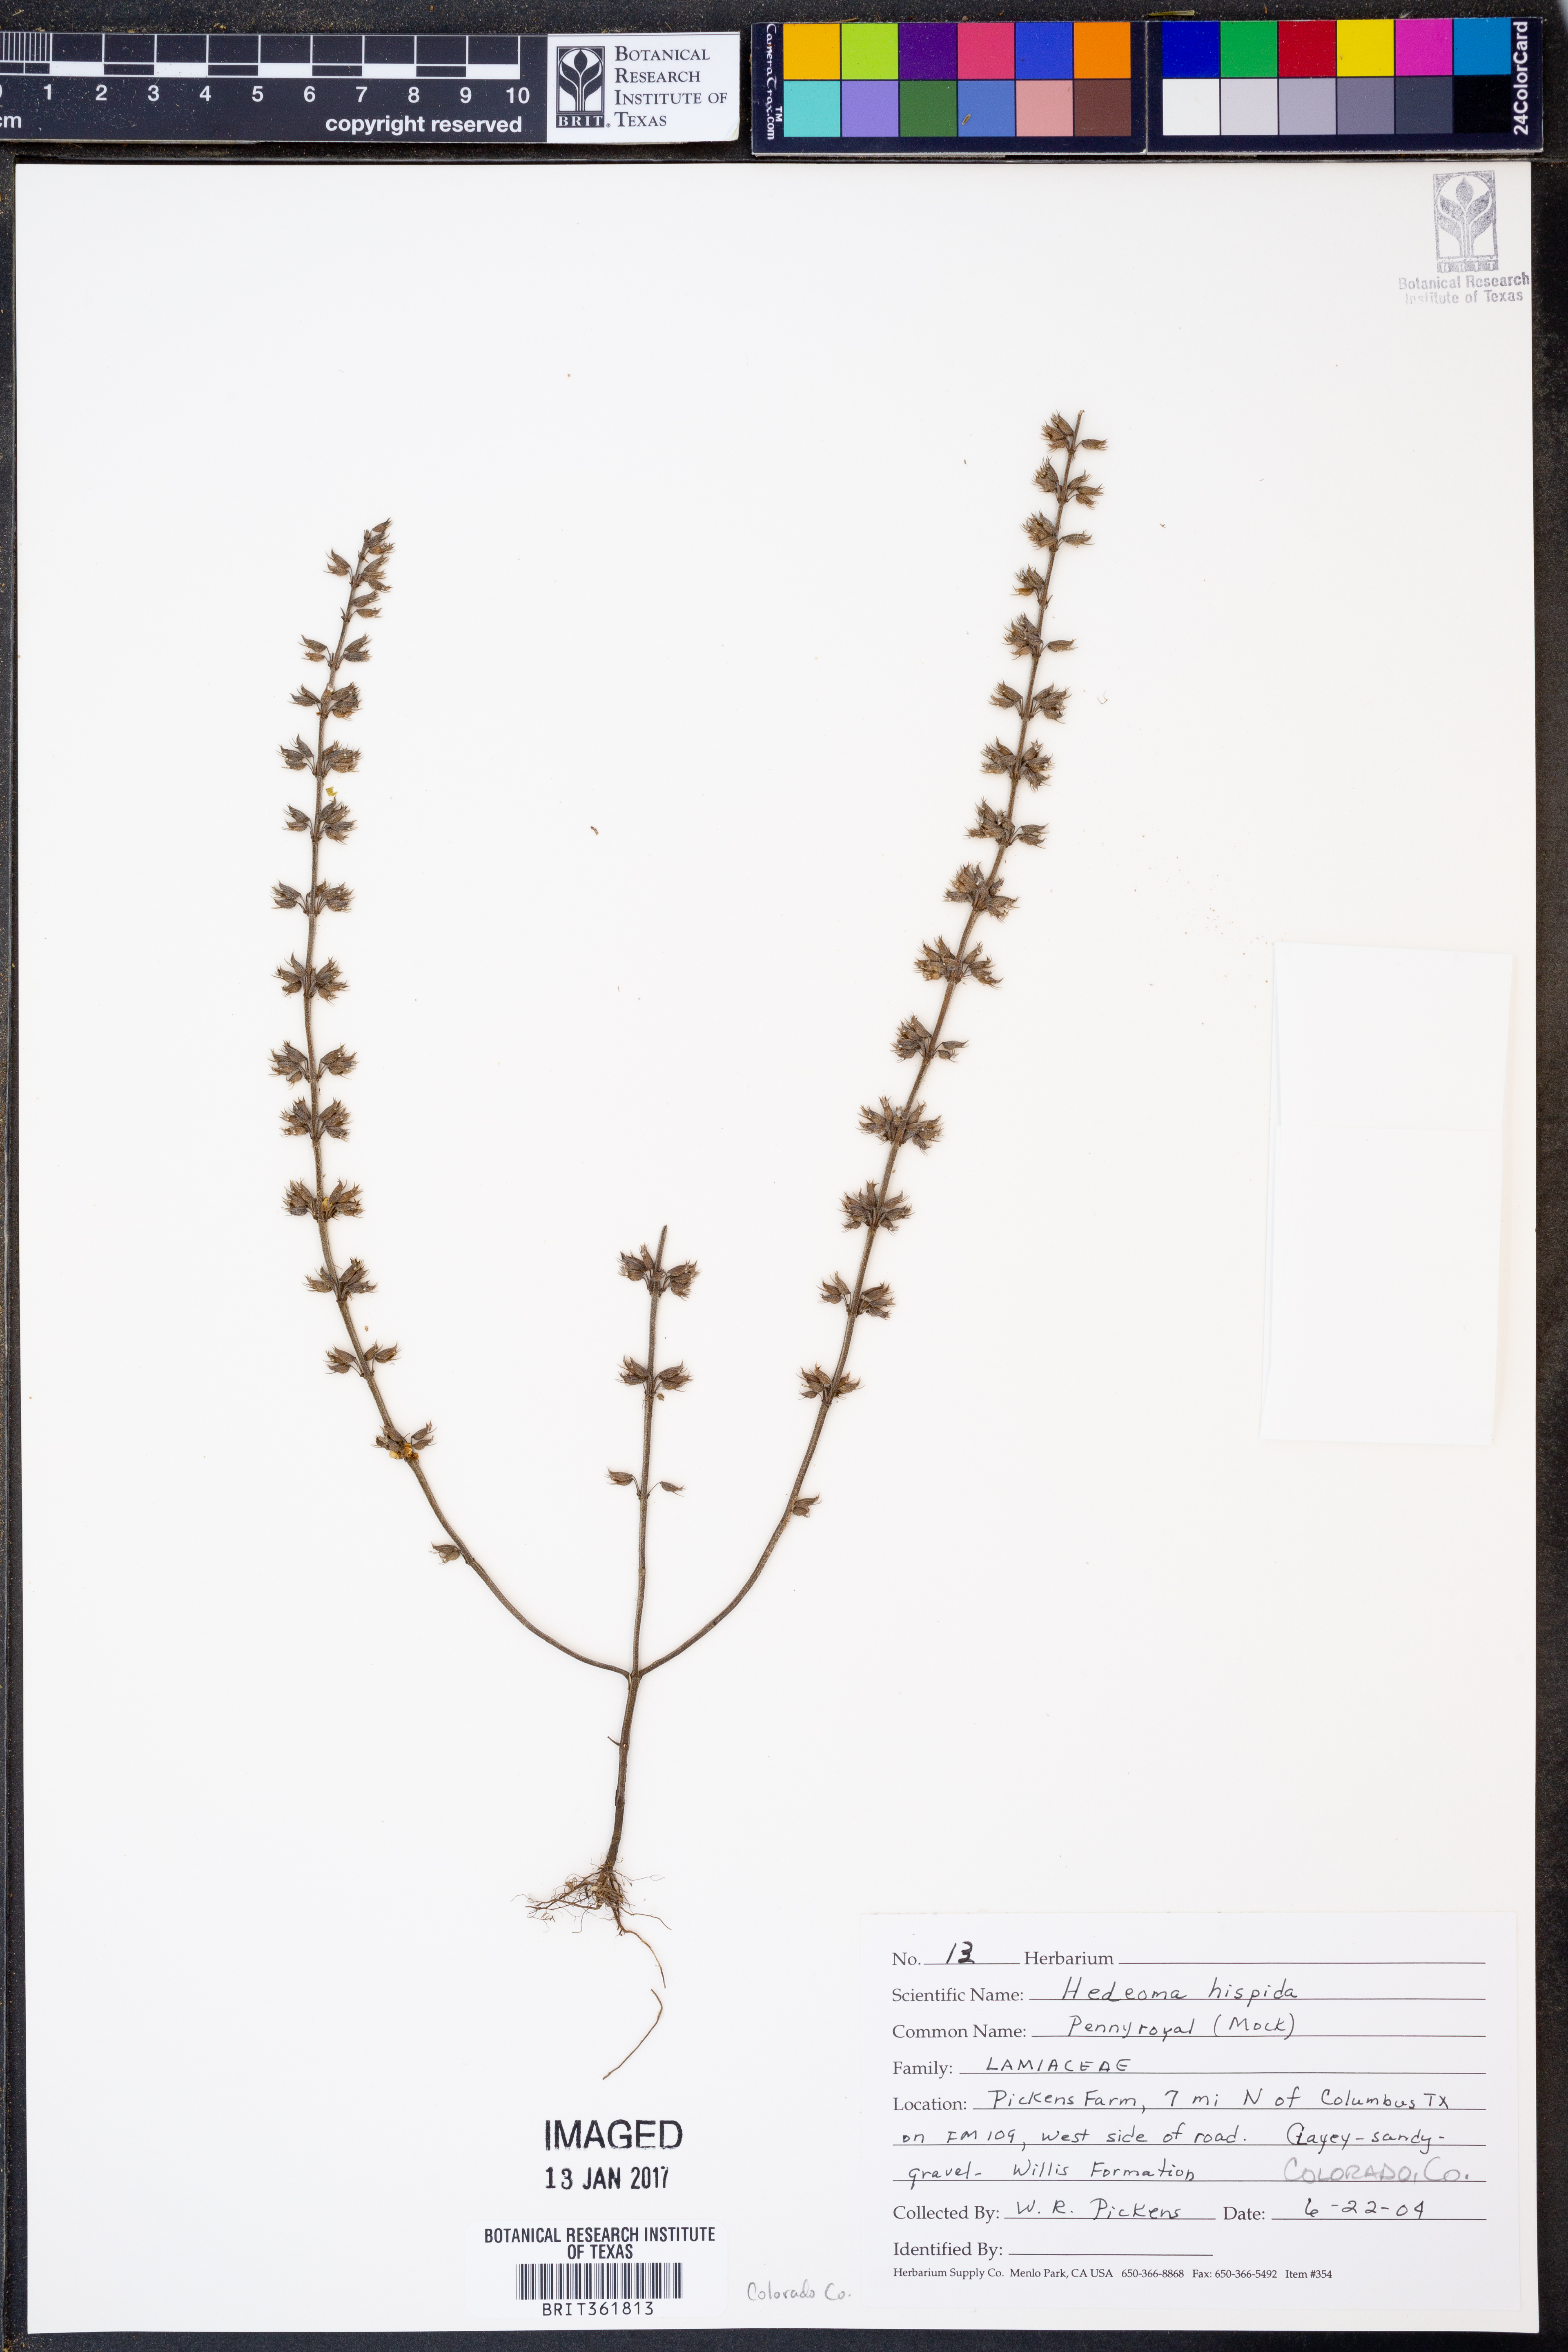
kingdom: Plantae
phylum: Tracheophyta
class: Magnoliopsida
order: Lamiales
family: Lamiaceae
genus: Hedeoma
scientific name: Hedeoma hispida
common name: Mock pennyroyal
